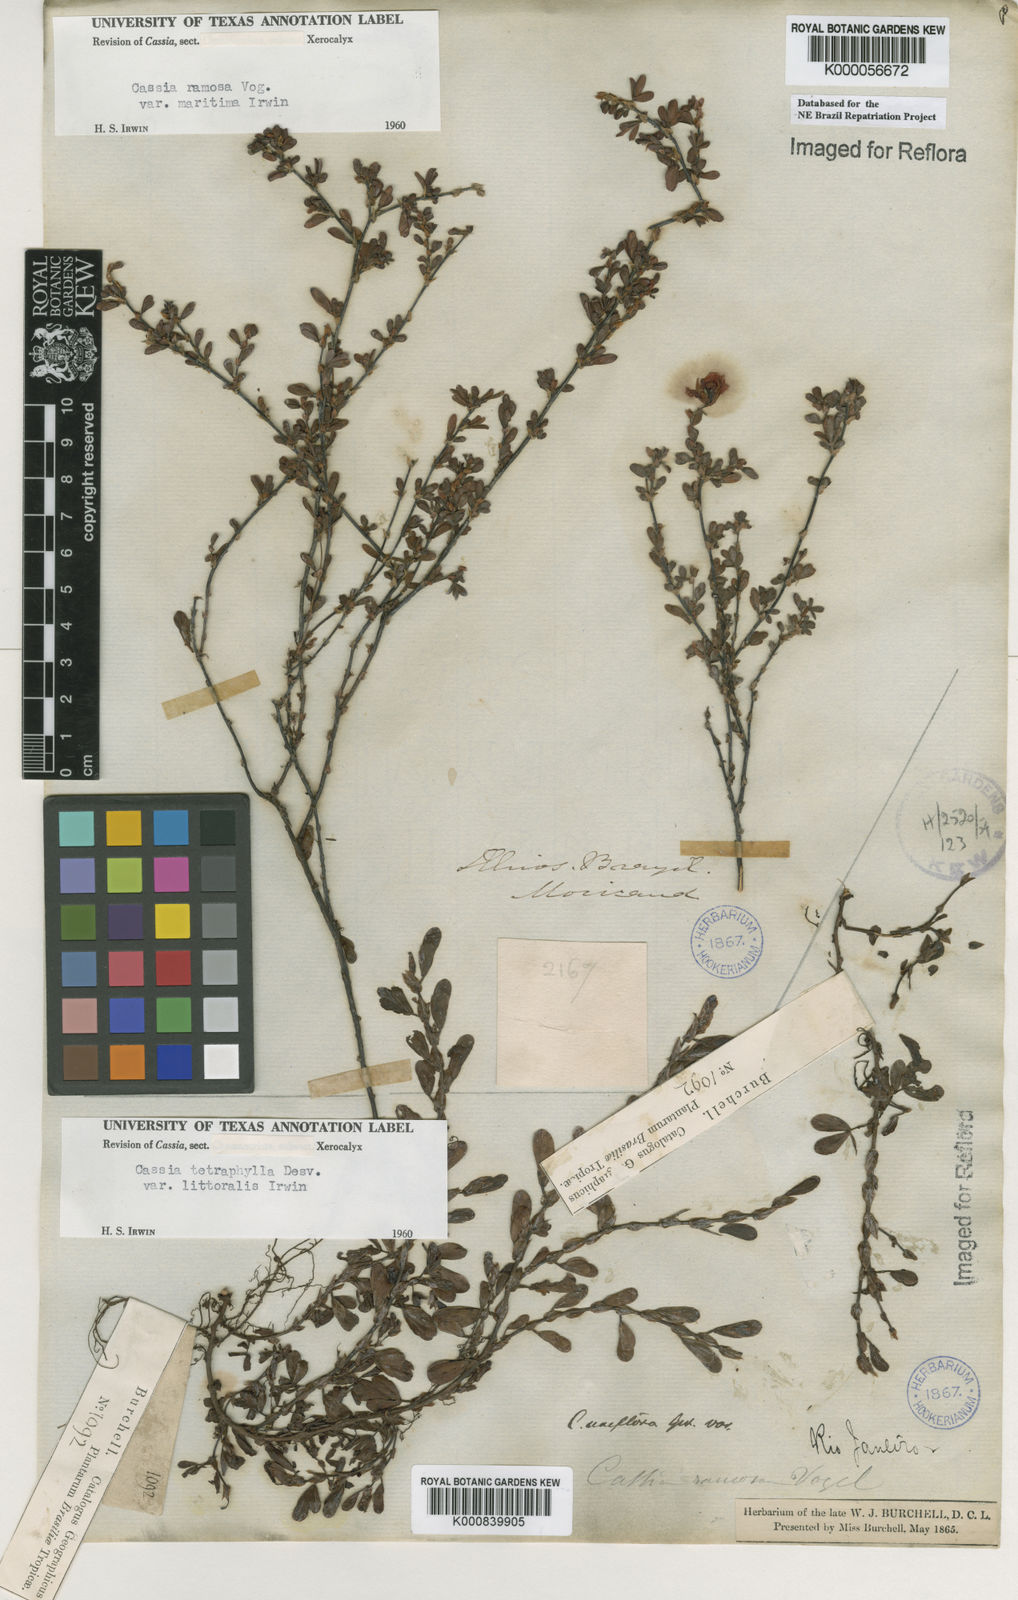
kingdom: Plantae
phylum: Tracheophyta
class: Magnoliopsida
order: Fabales
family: Fabaceae
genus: Chamaecrista
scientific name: Chamaecrista ramosa
